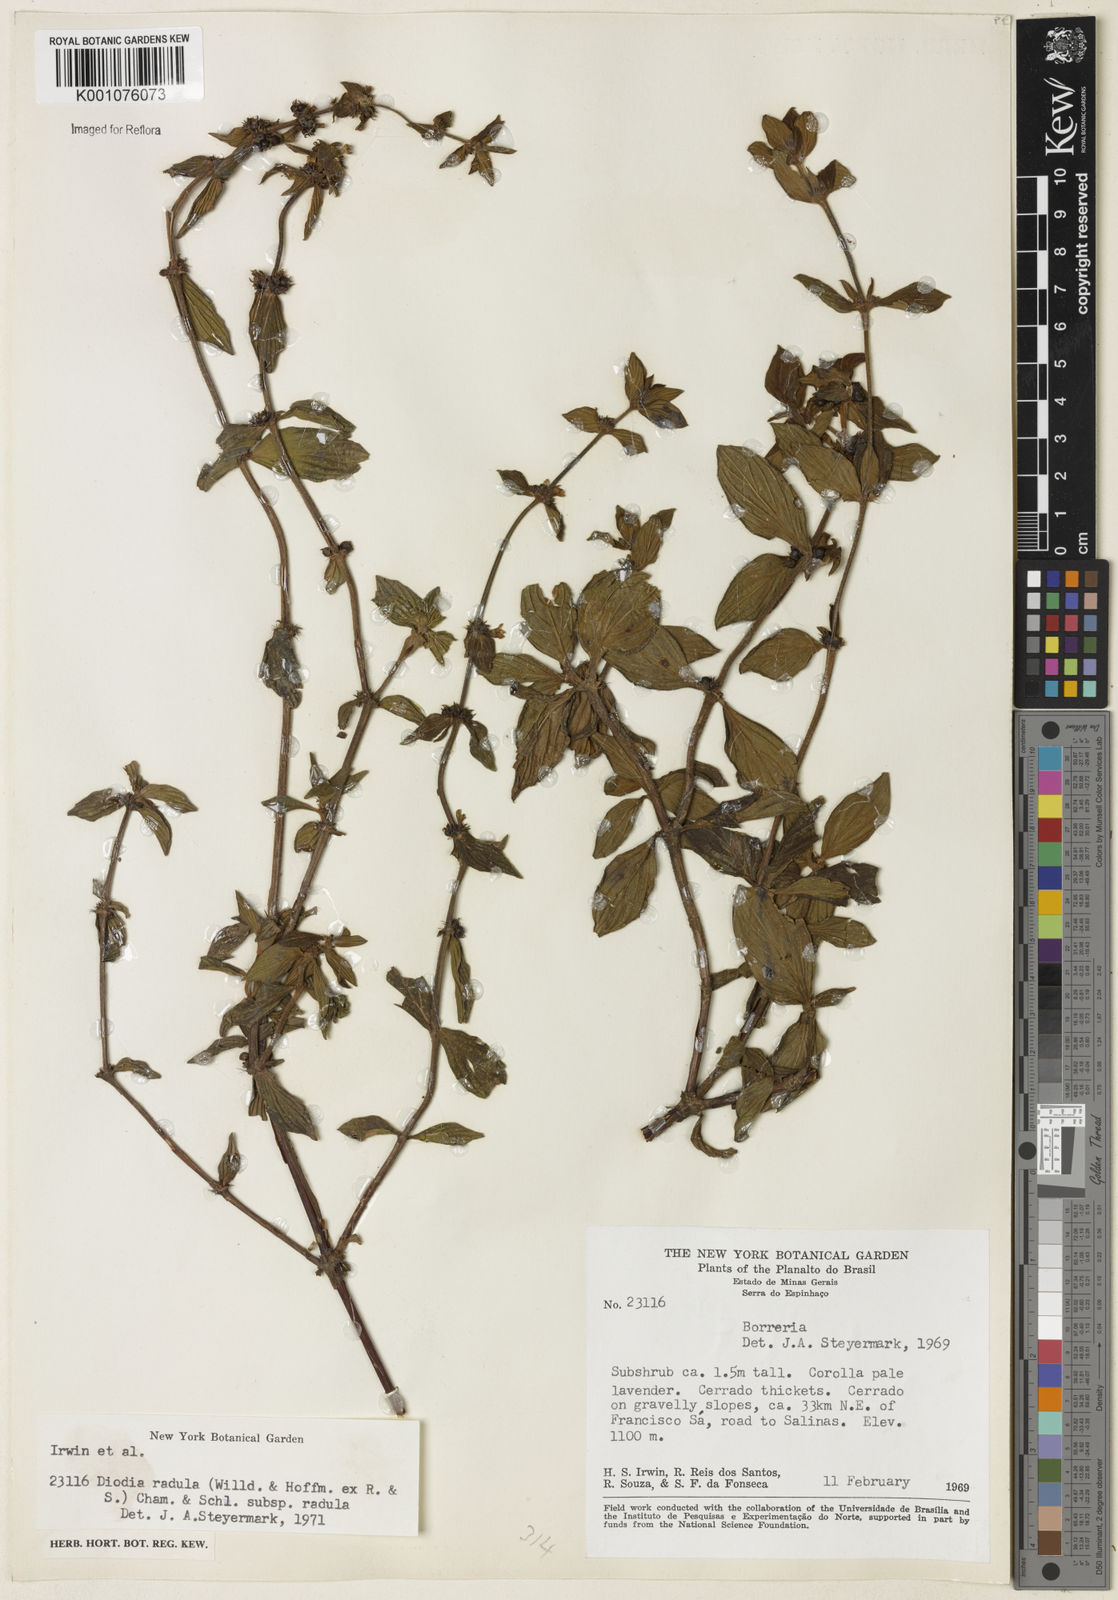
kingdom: Plantae
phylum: Tracheophyta
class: Magnoliopsida
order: Gentianales
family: Rubiaceae
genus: Hexasepalum
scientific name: Hexasepalum radulum
